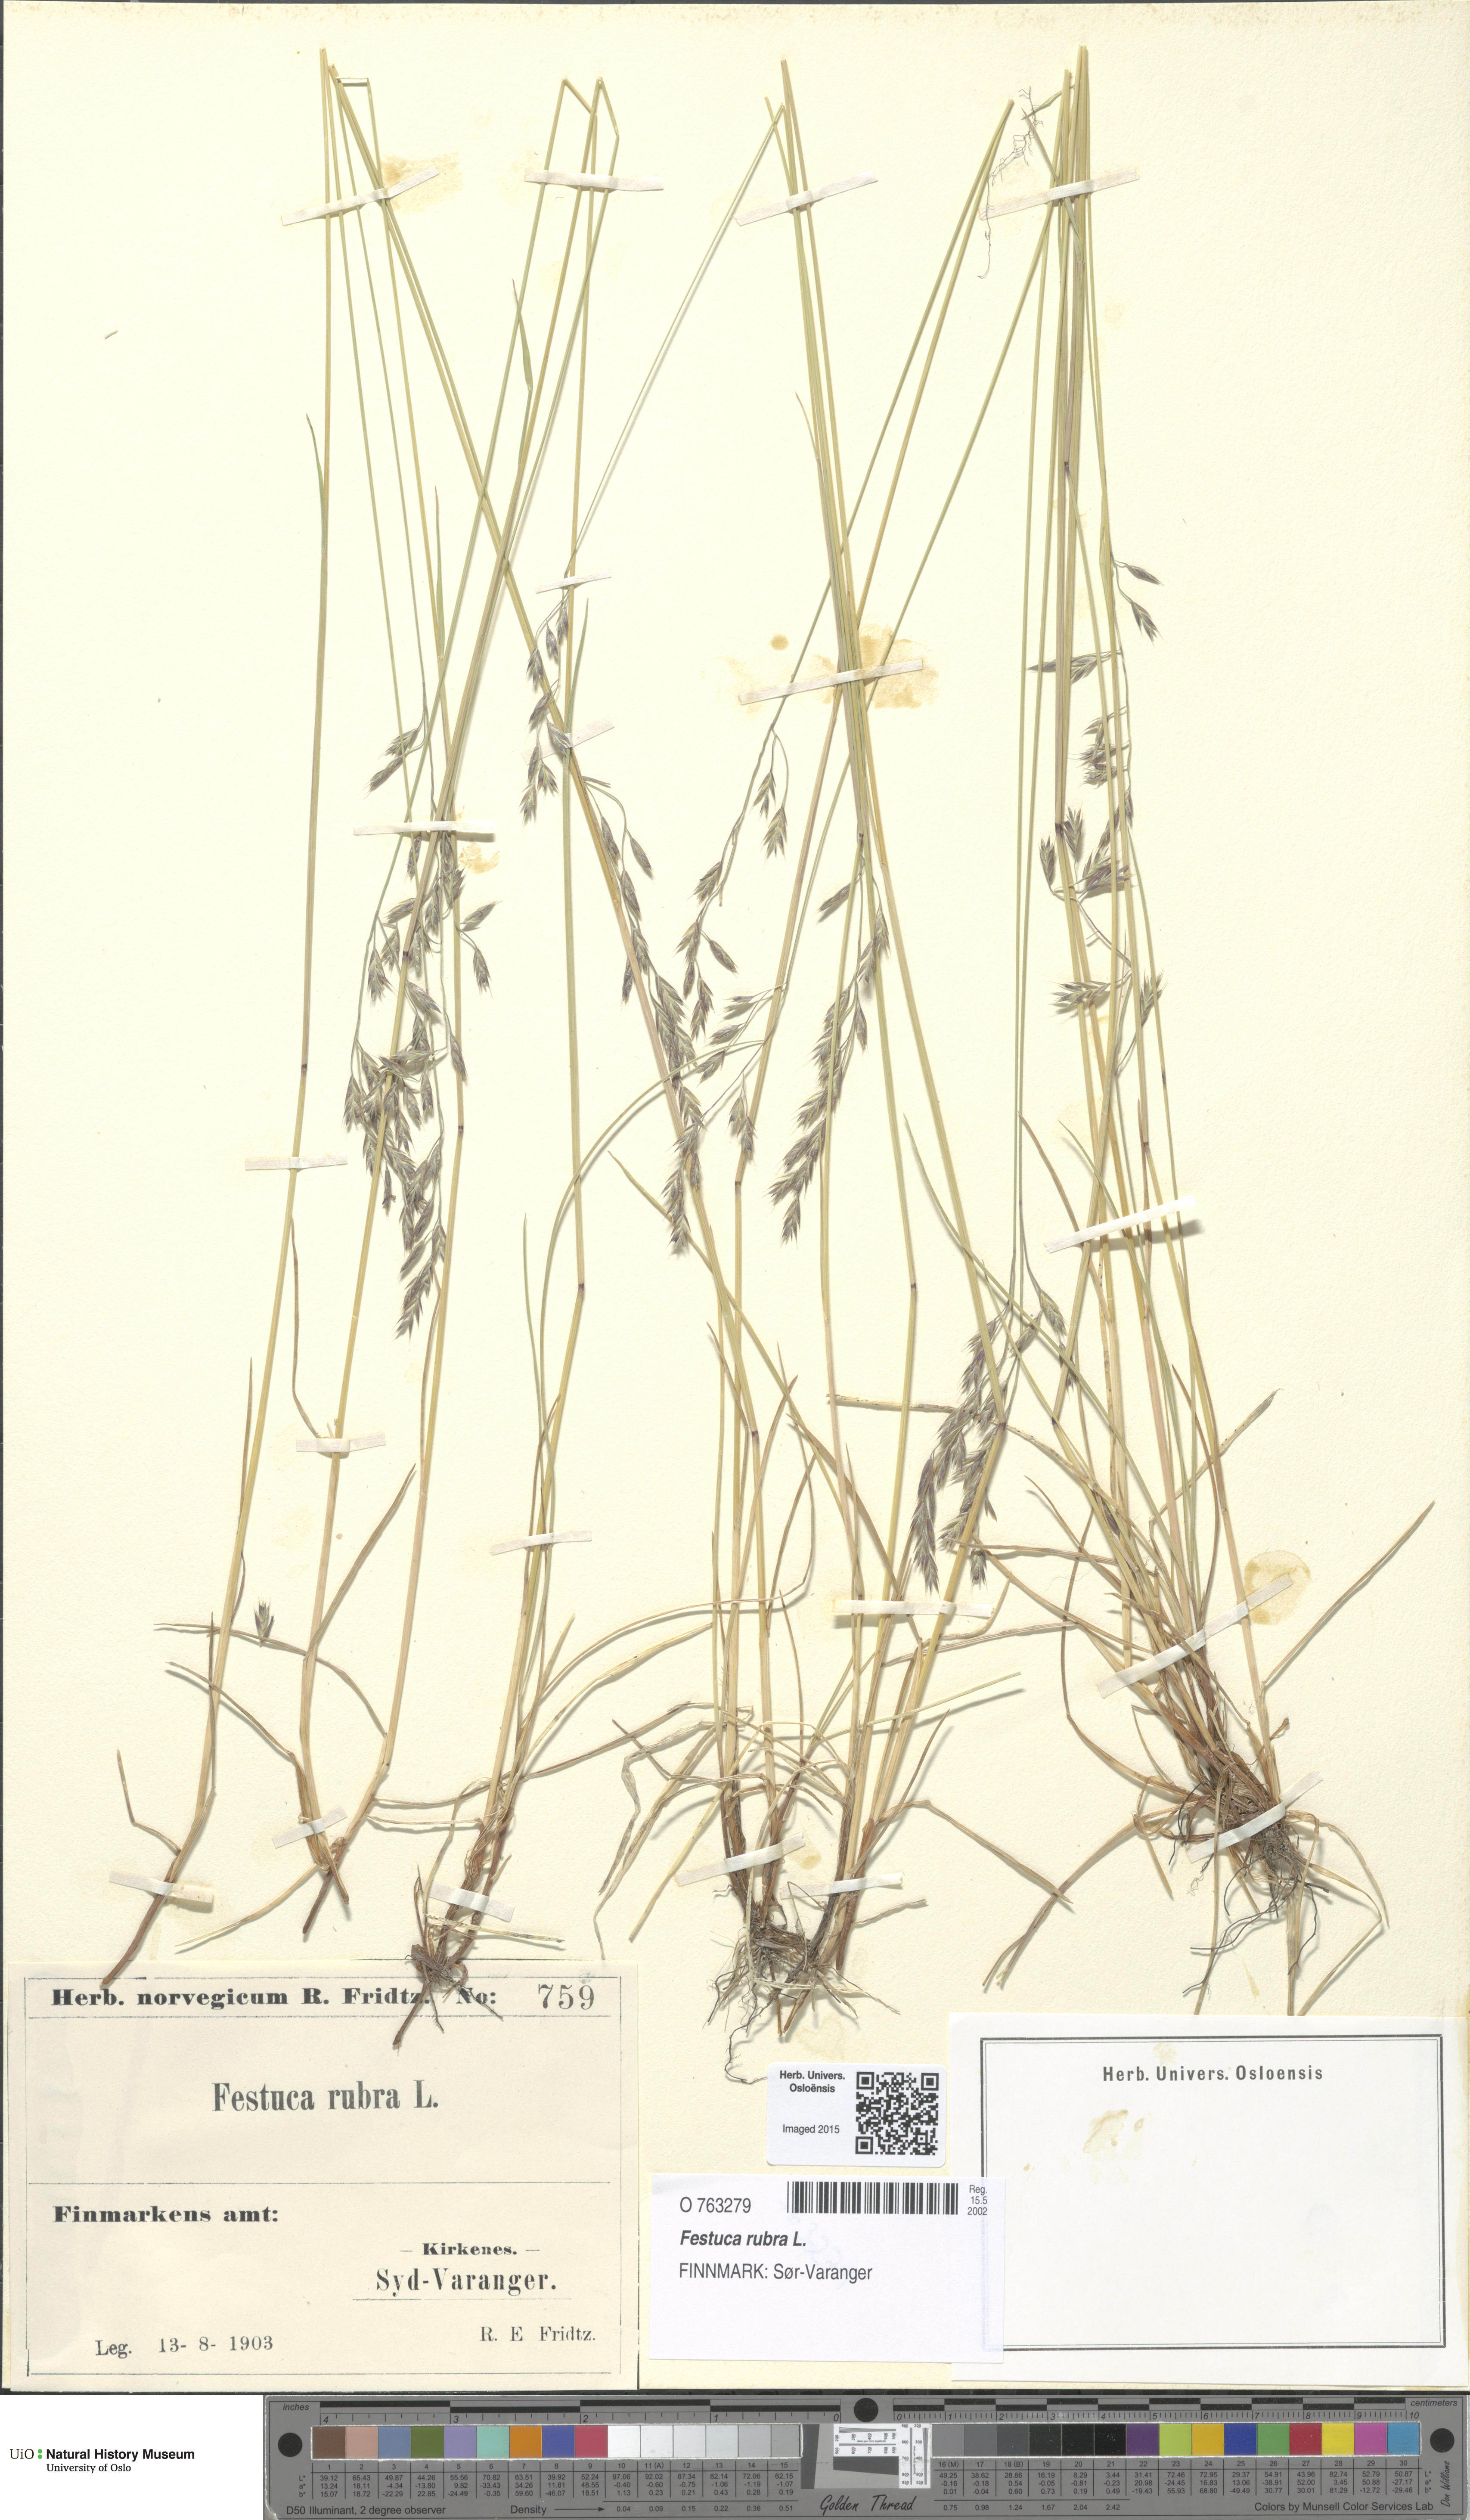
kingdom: Plantae
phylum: Tracheophyta
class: Liliopsida
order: Poales
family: Poaceae
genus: Festuca
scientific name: Festuca rubra
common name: Red fescue
